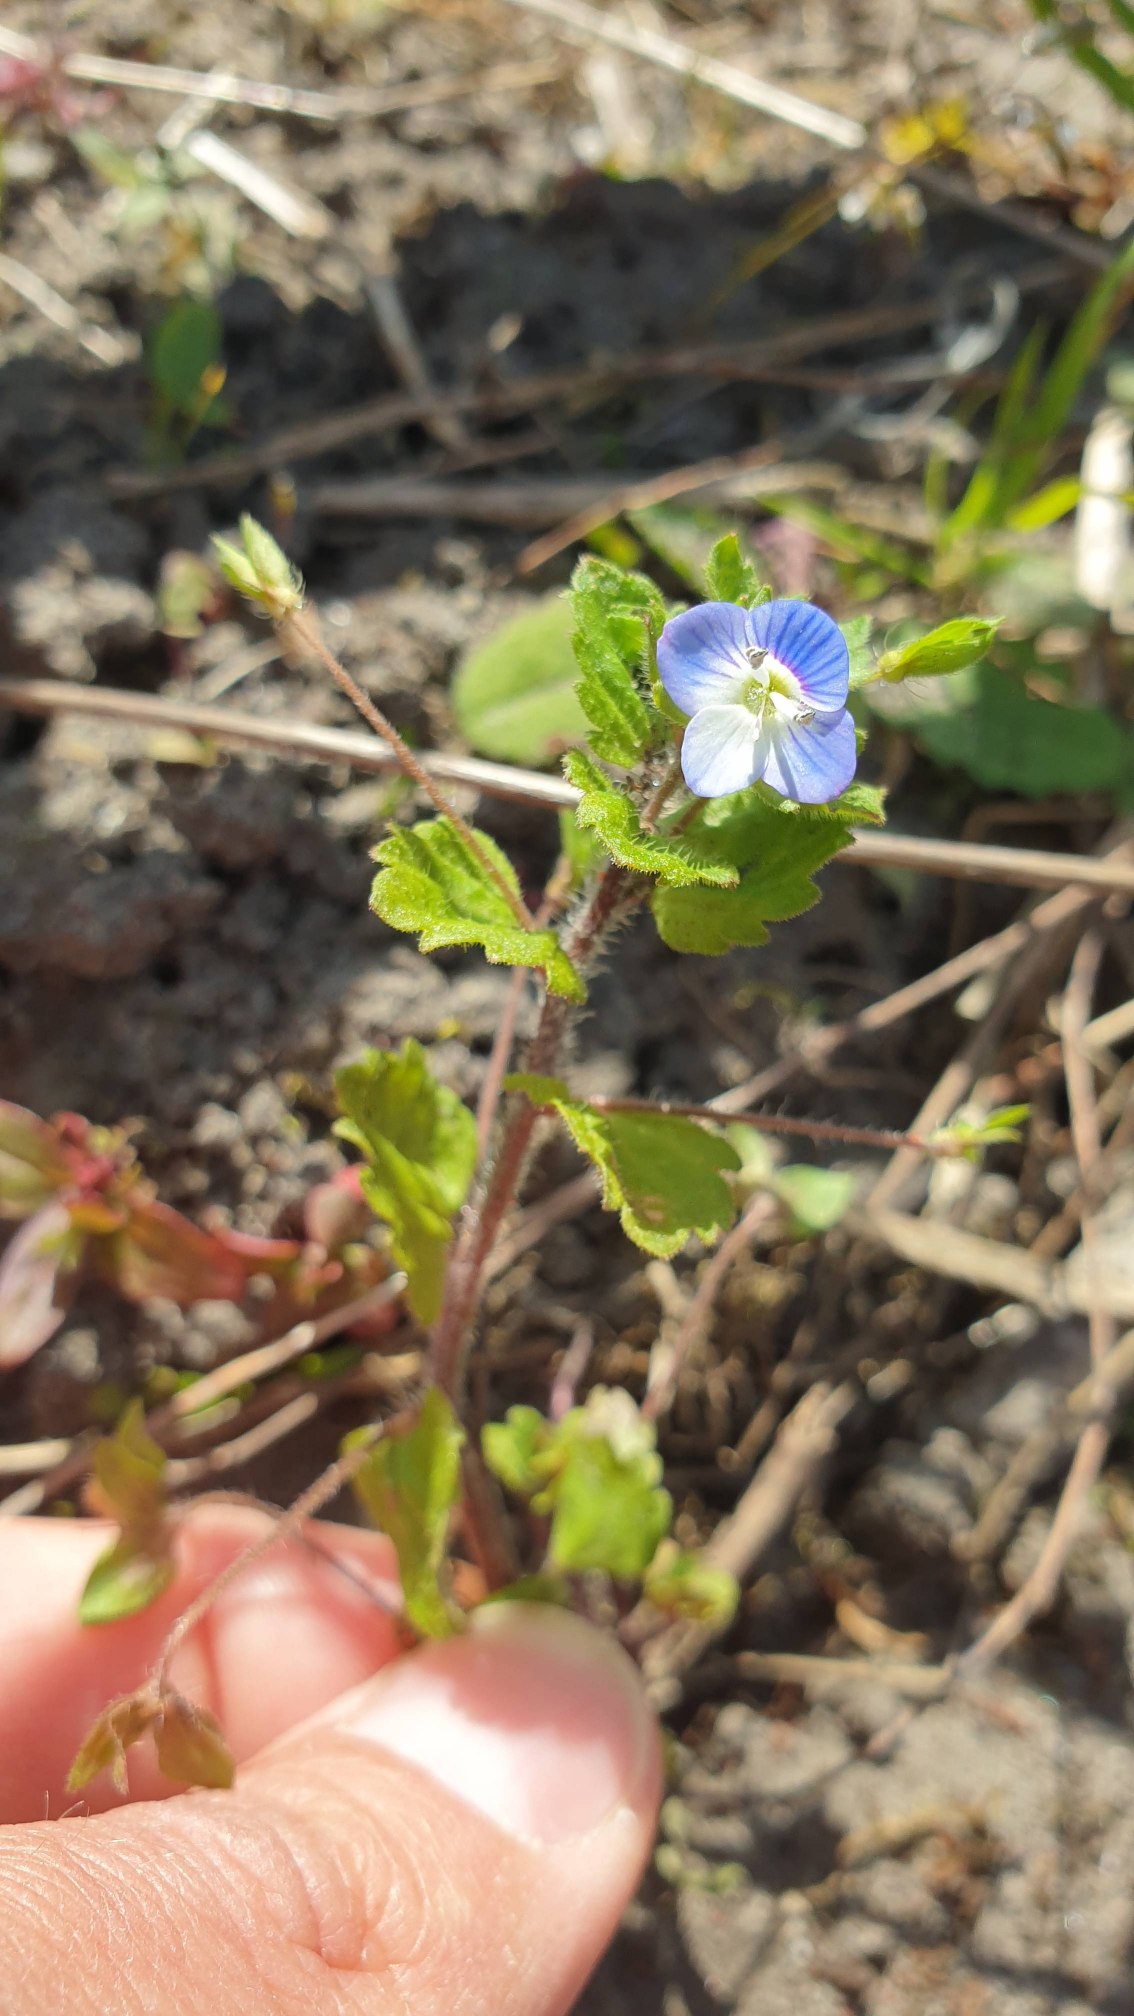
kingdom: Plantae
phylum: Tracheophyta
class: Magnoliopsida
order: Lamiales
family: Plantaginaceae
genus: Veronica
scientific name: Veronica persica
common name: Storkronet ærenpris
